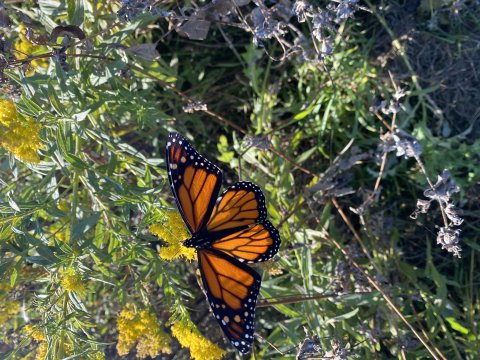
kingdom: Animalia
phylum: Arthropoda
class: Insecta
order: Lepidoptera
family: Nymphalidae
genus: Danaus
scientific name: Danaus plexippus
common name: Monarch
